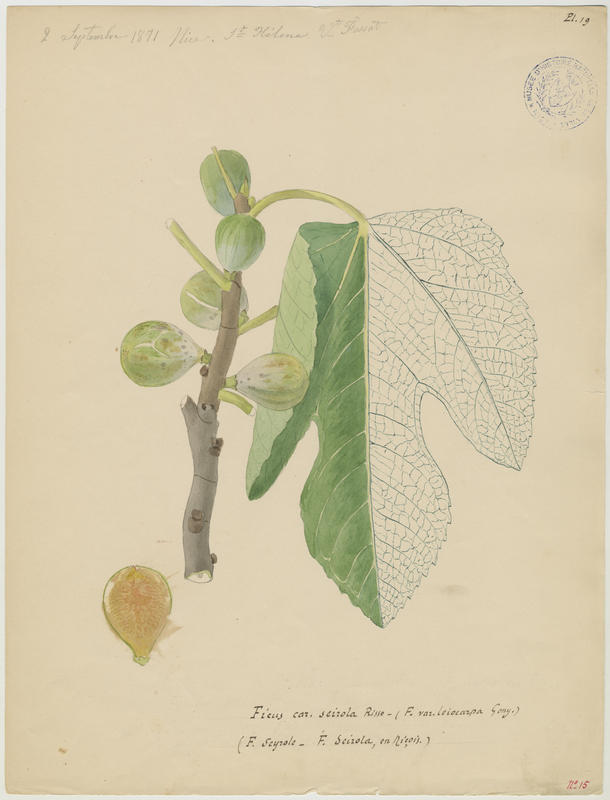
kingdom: Plantae
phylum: Tracheophyta
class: Magnoliopsida
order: Rosales
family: Moraceae
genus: Ficus
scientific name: Ficus carica
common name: Fig
